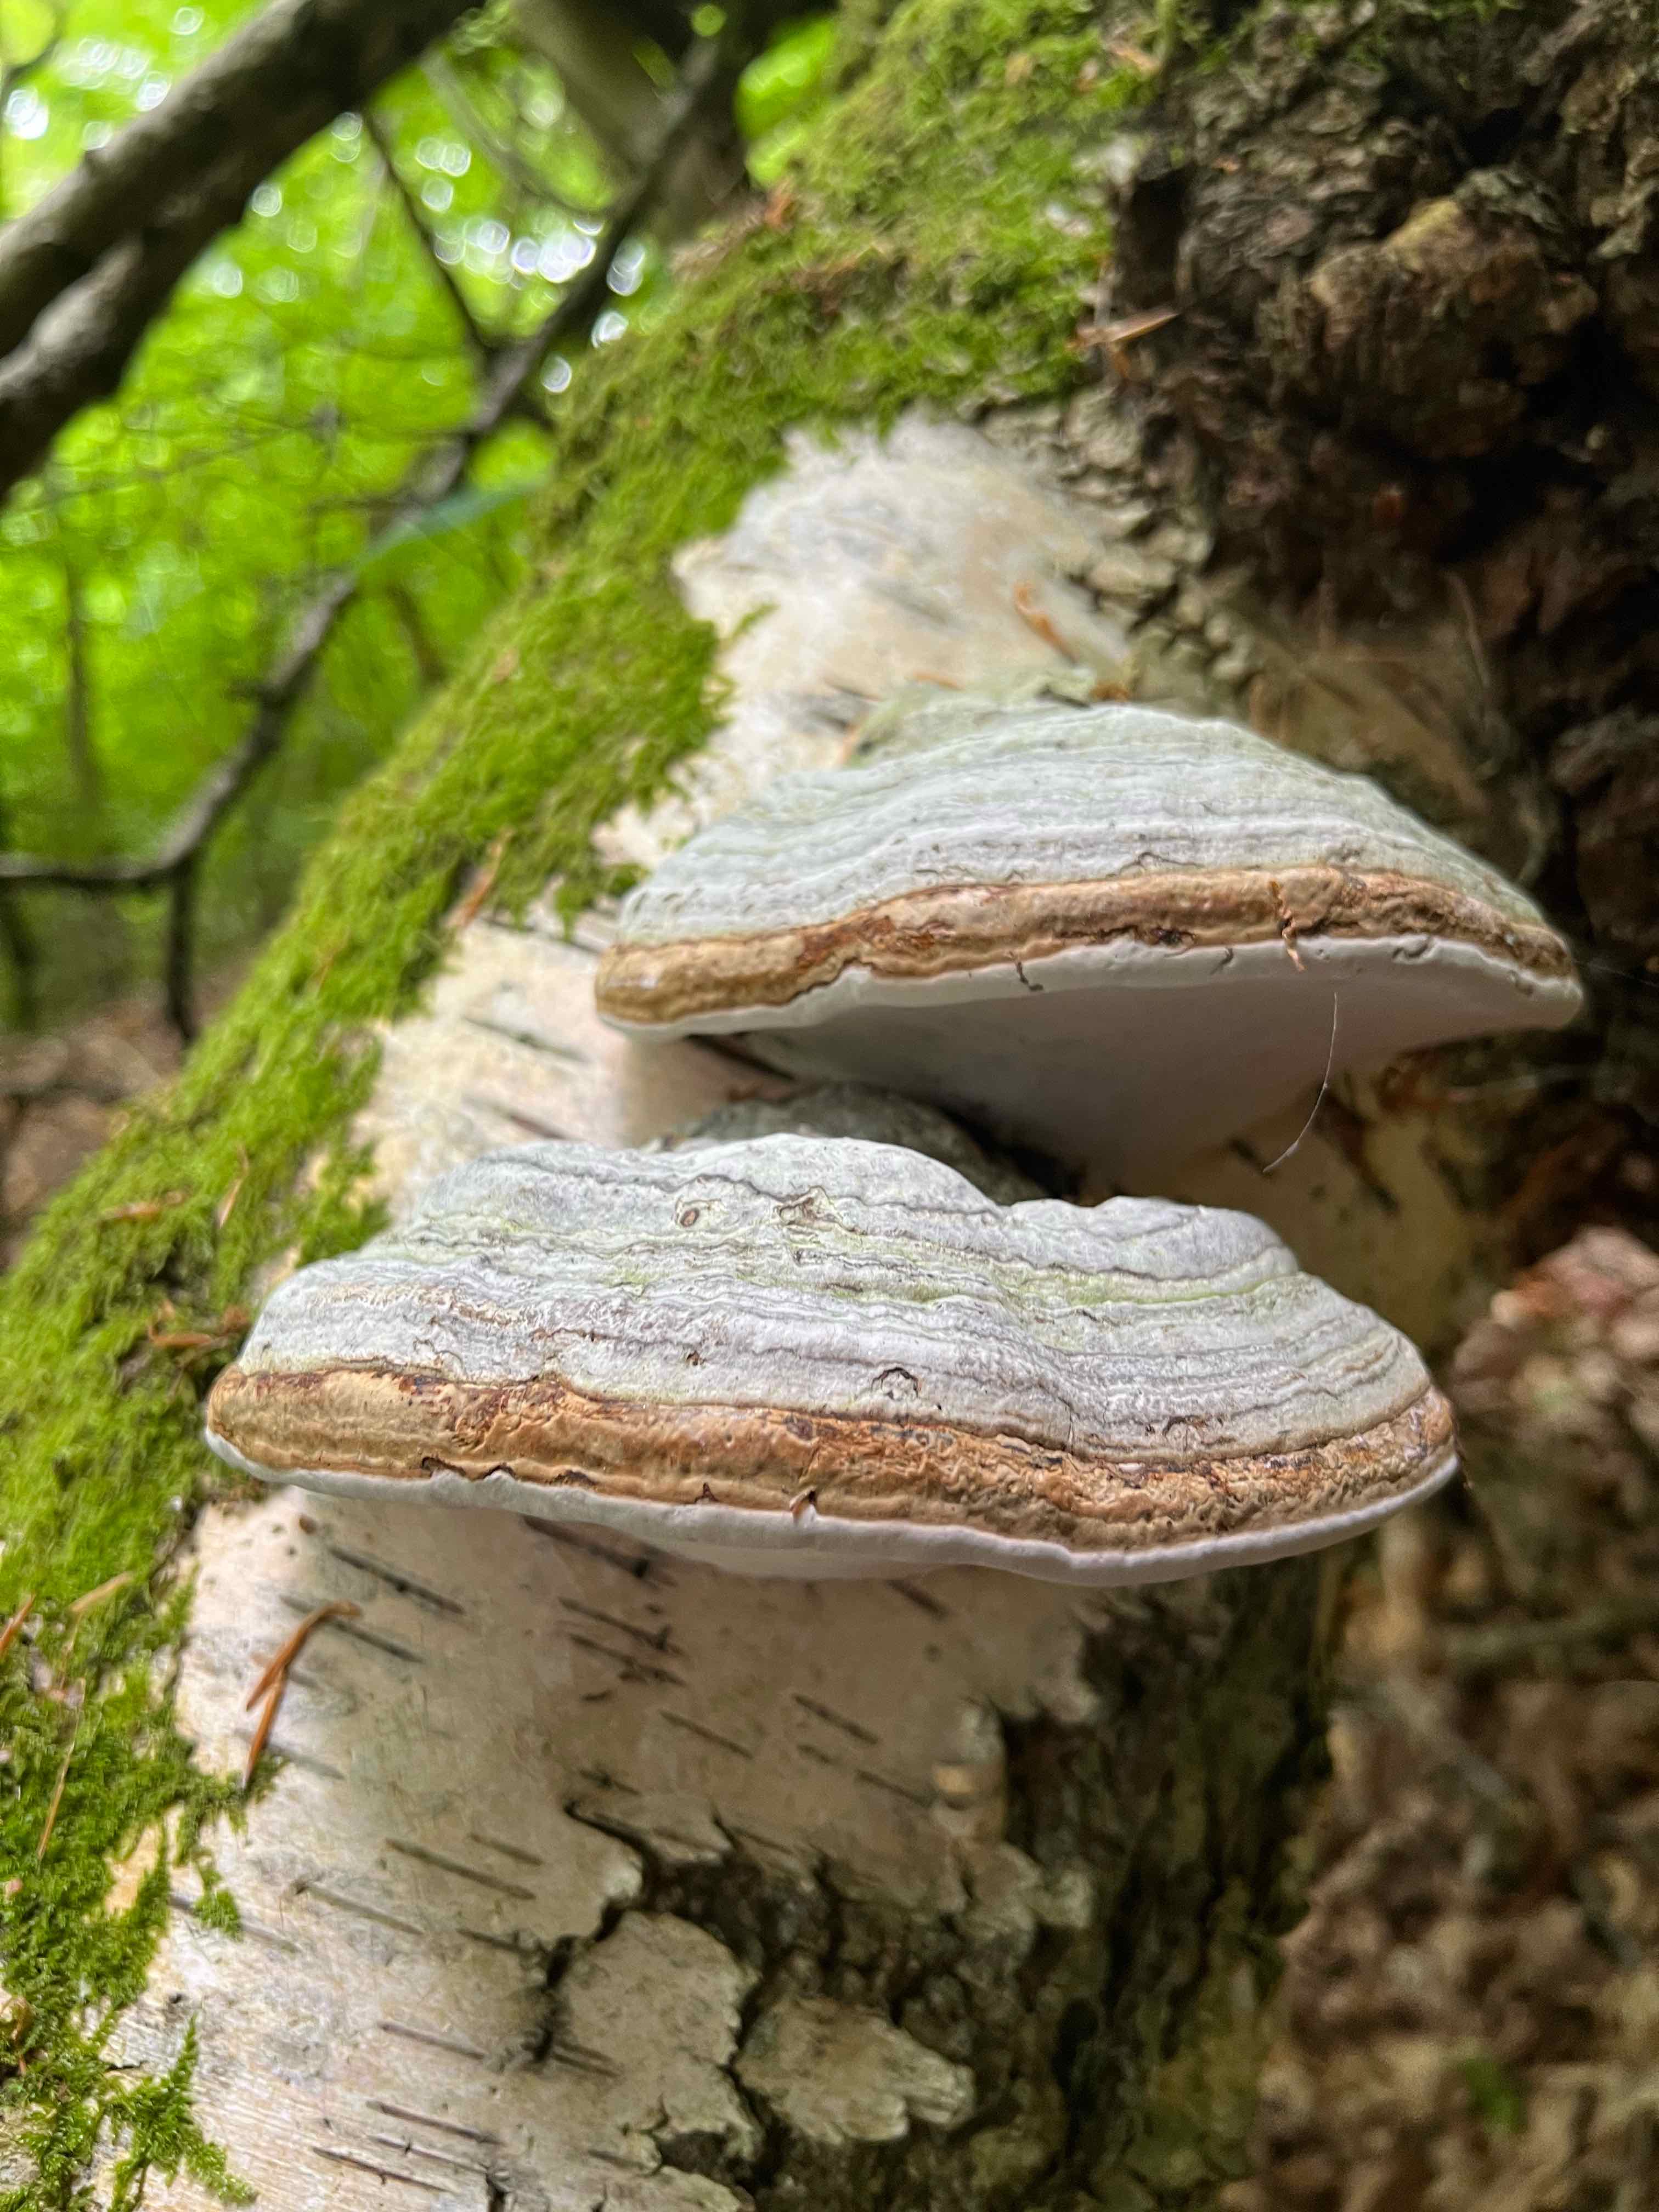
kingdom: Fungi
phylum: Basidiomycota
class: Agaricomycetes
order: Polyporales
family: Polyporaceae
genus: Fomes
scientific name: Fomes fomentarius
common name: tøndersvamp
